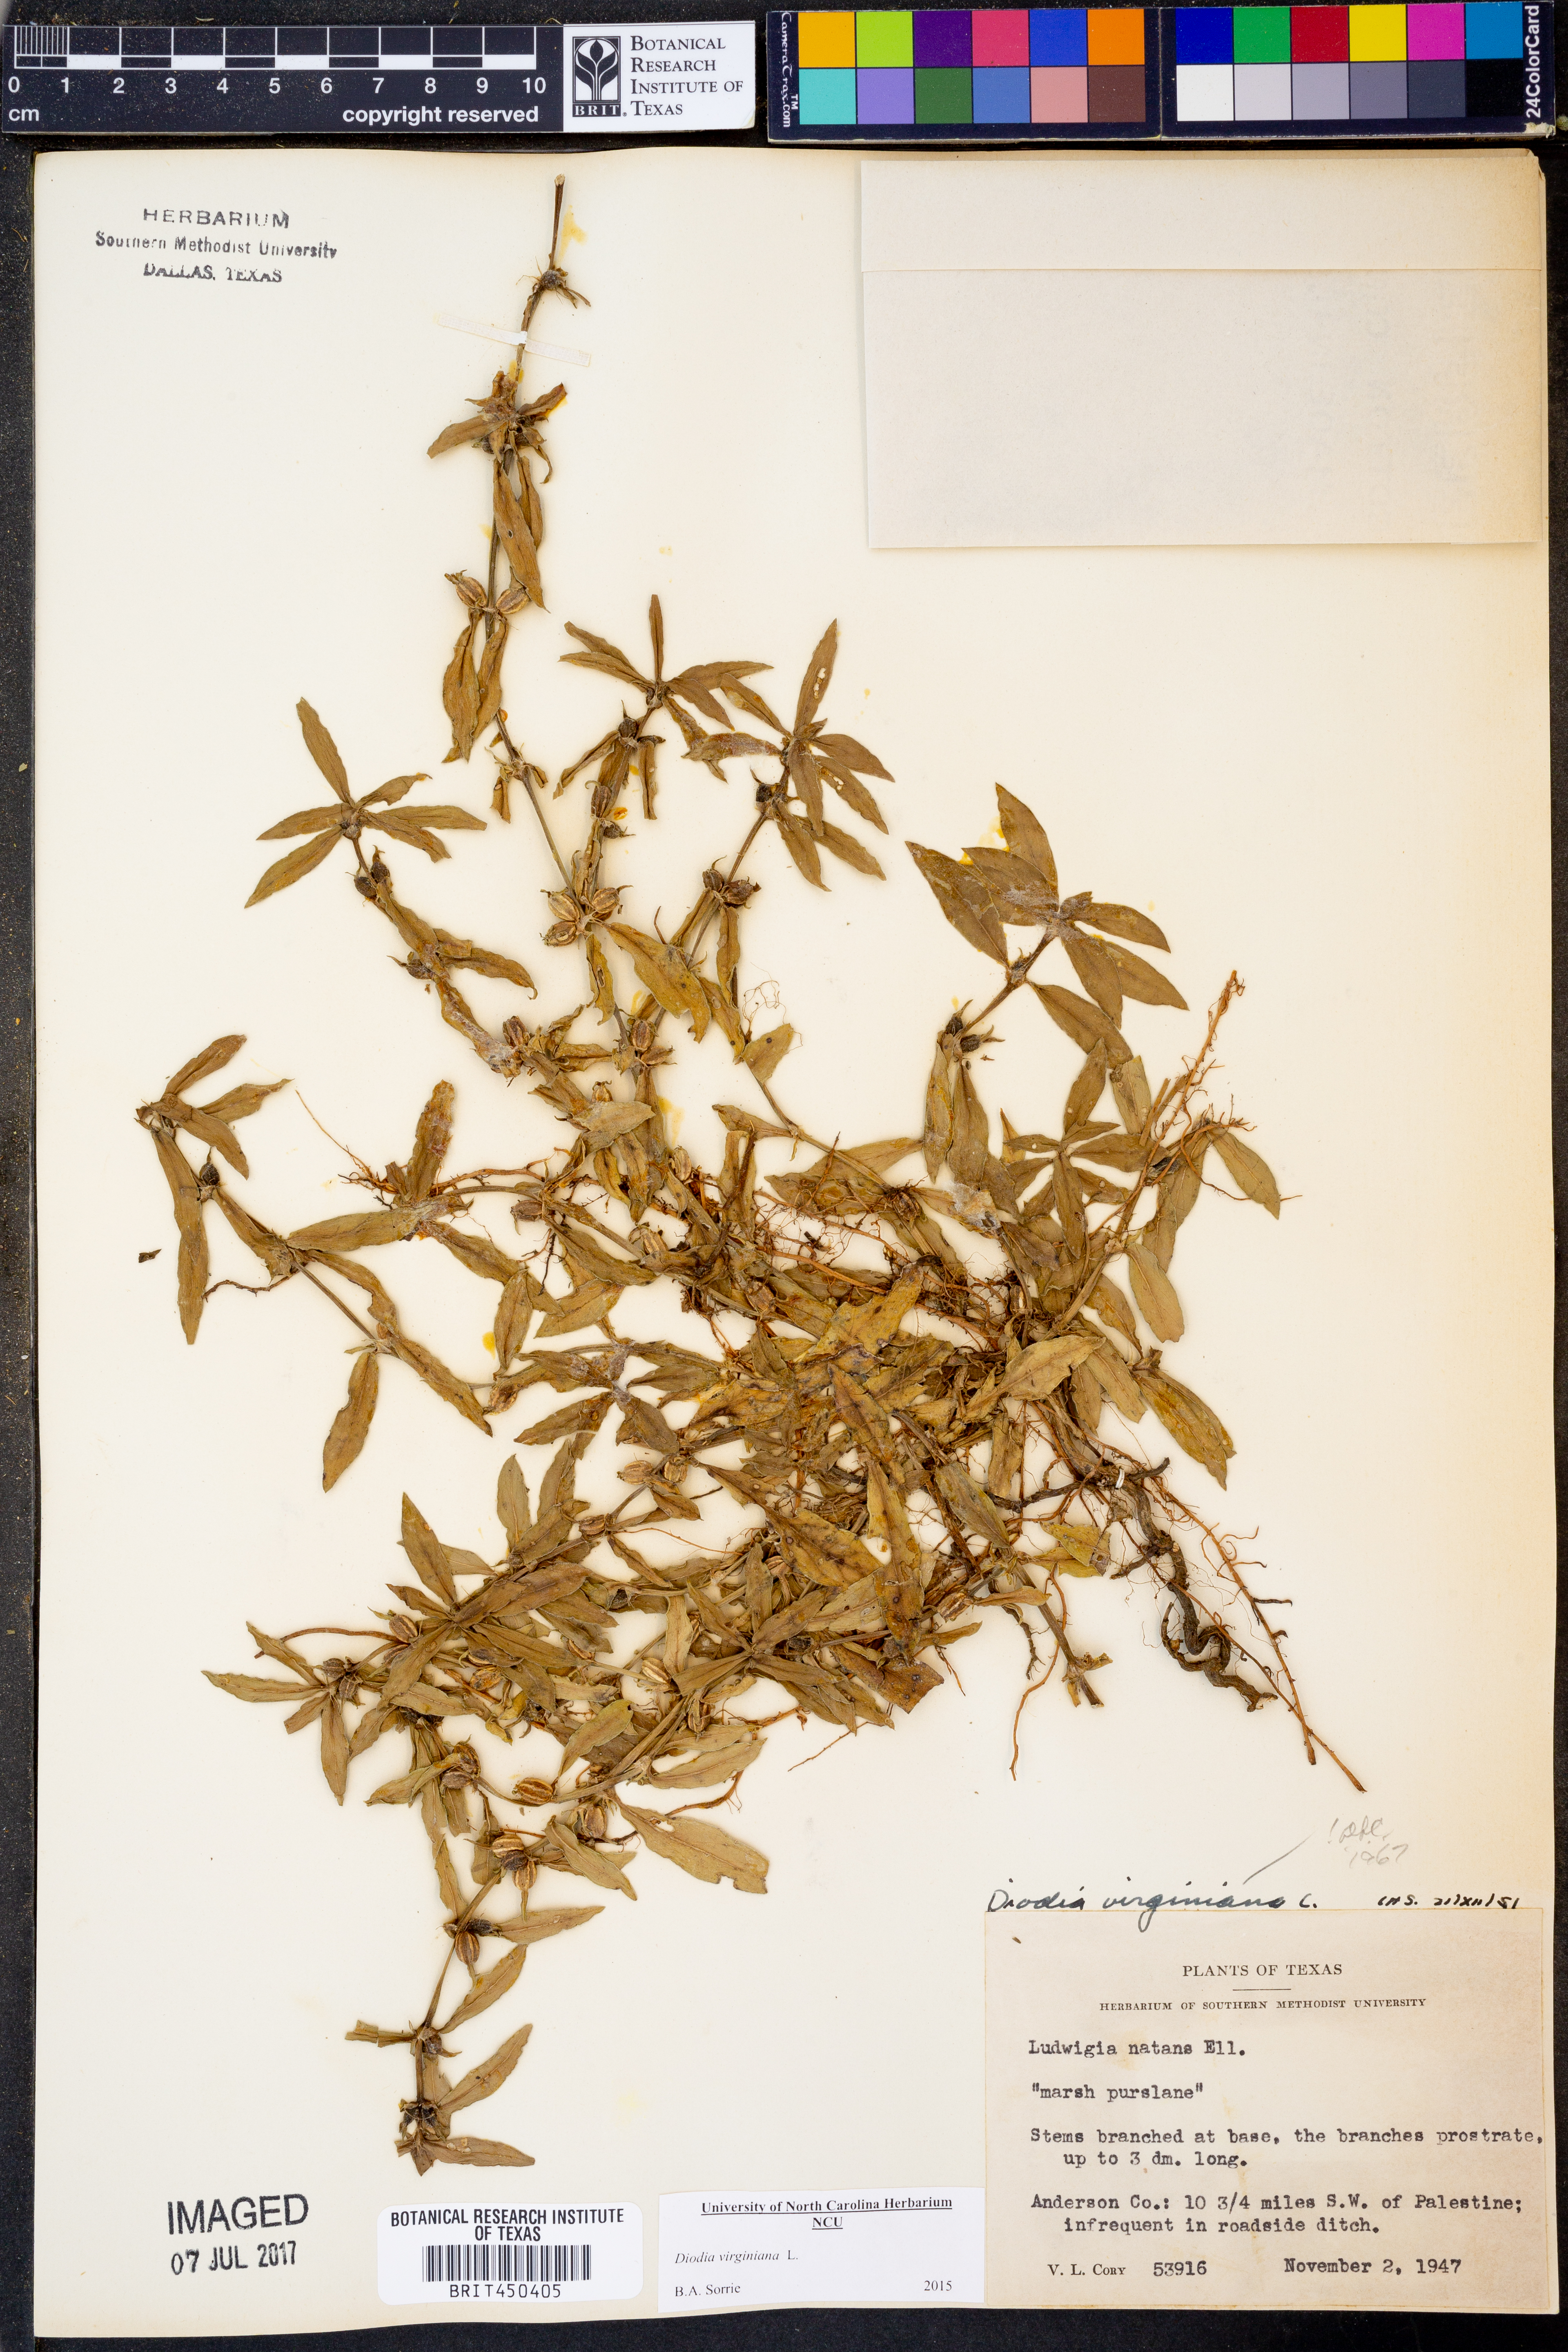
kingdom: Plantae
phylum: Tracheophyta
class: Magnoliopsida
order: Gentianales
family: Rubiaceae
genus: Diodia
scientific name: Diodia virginiana
